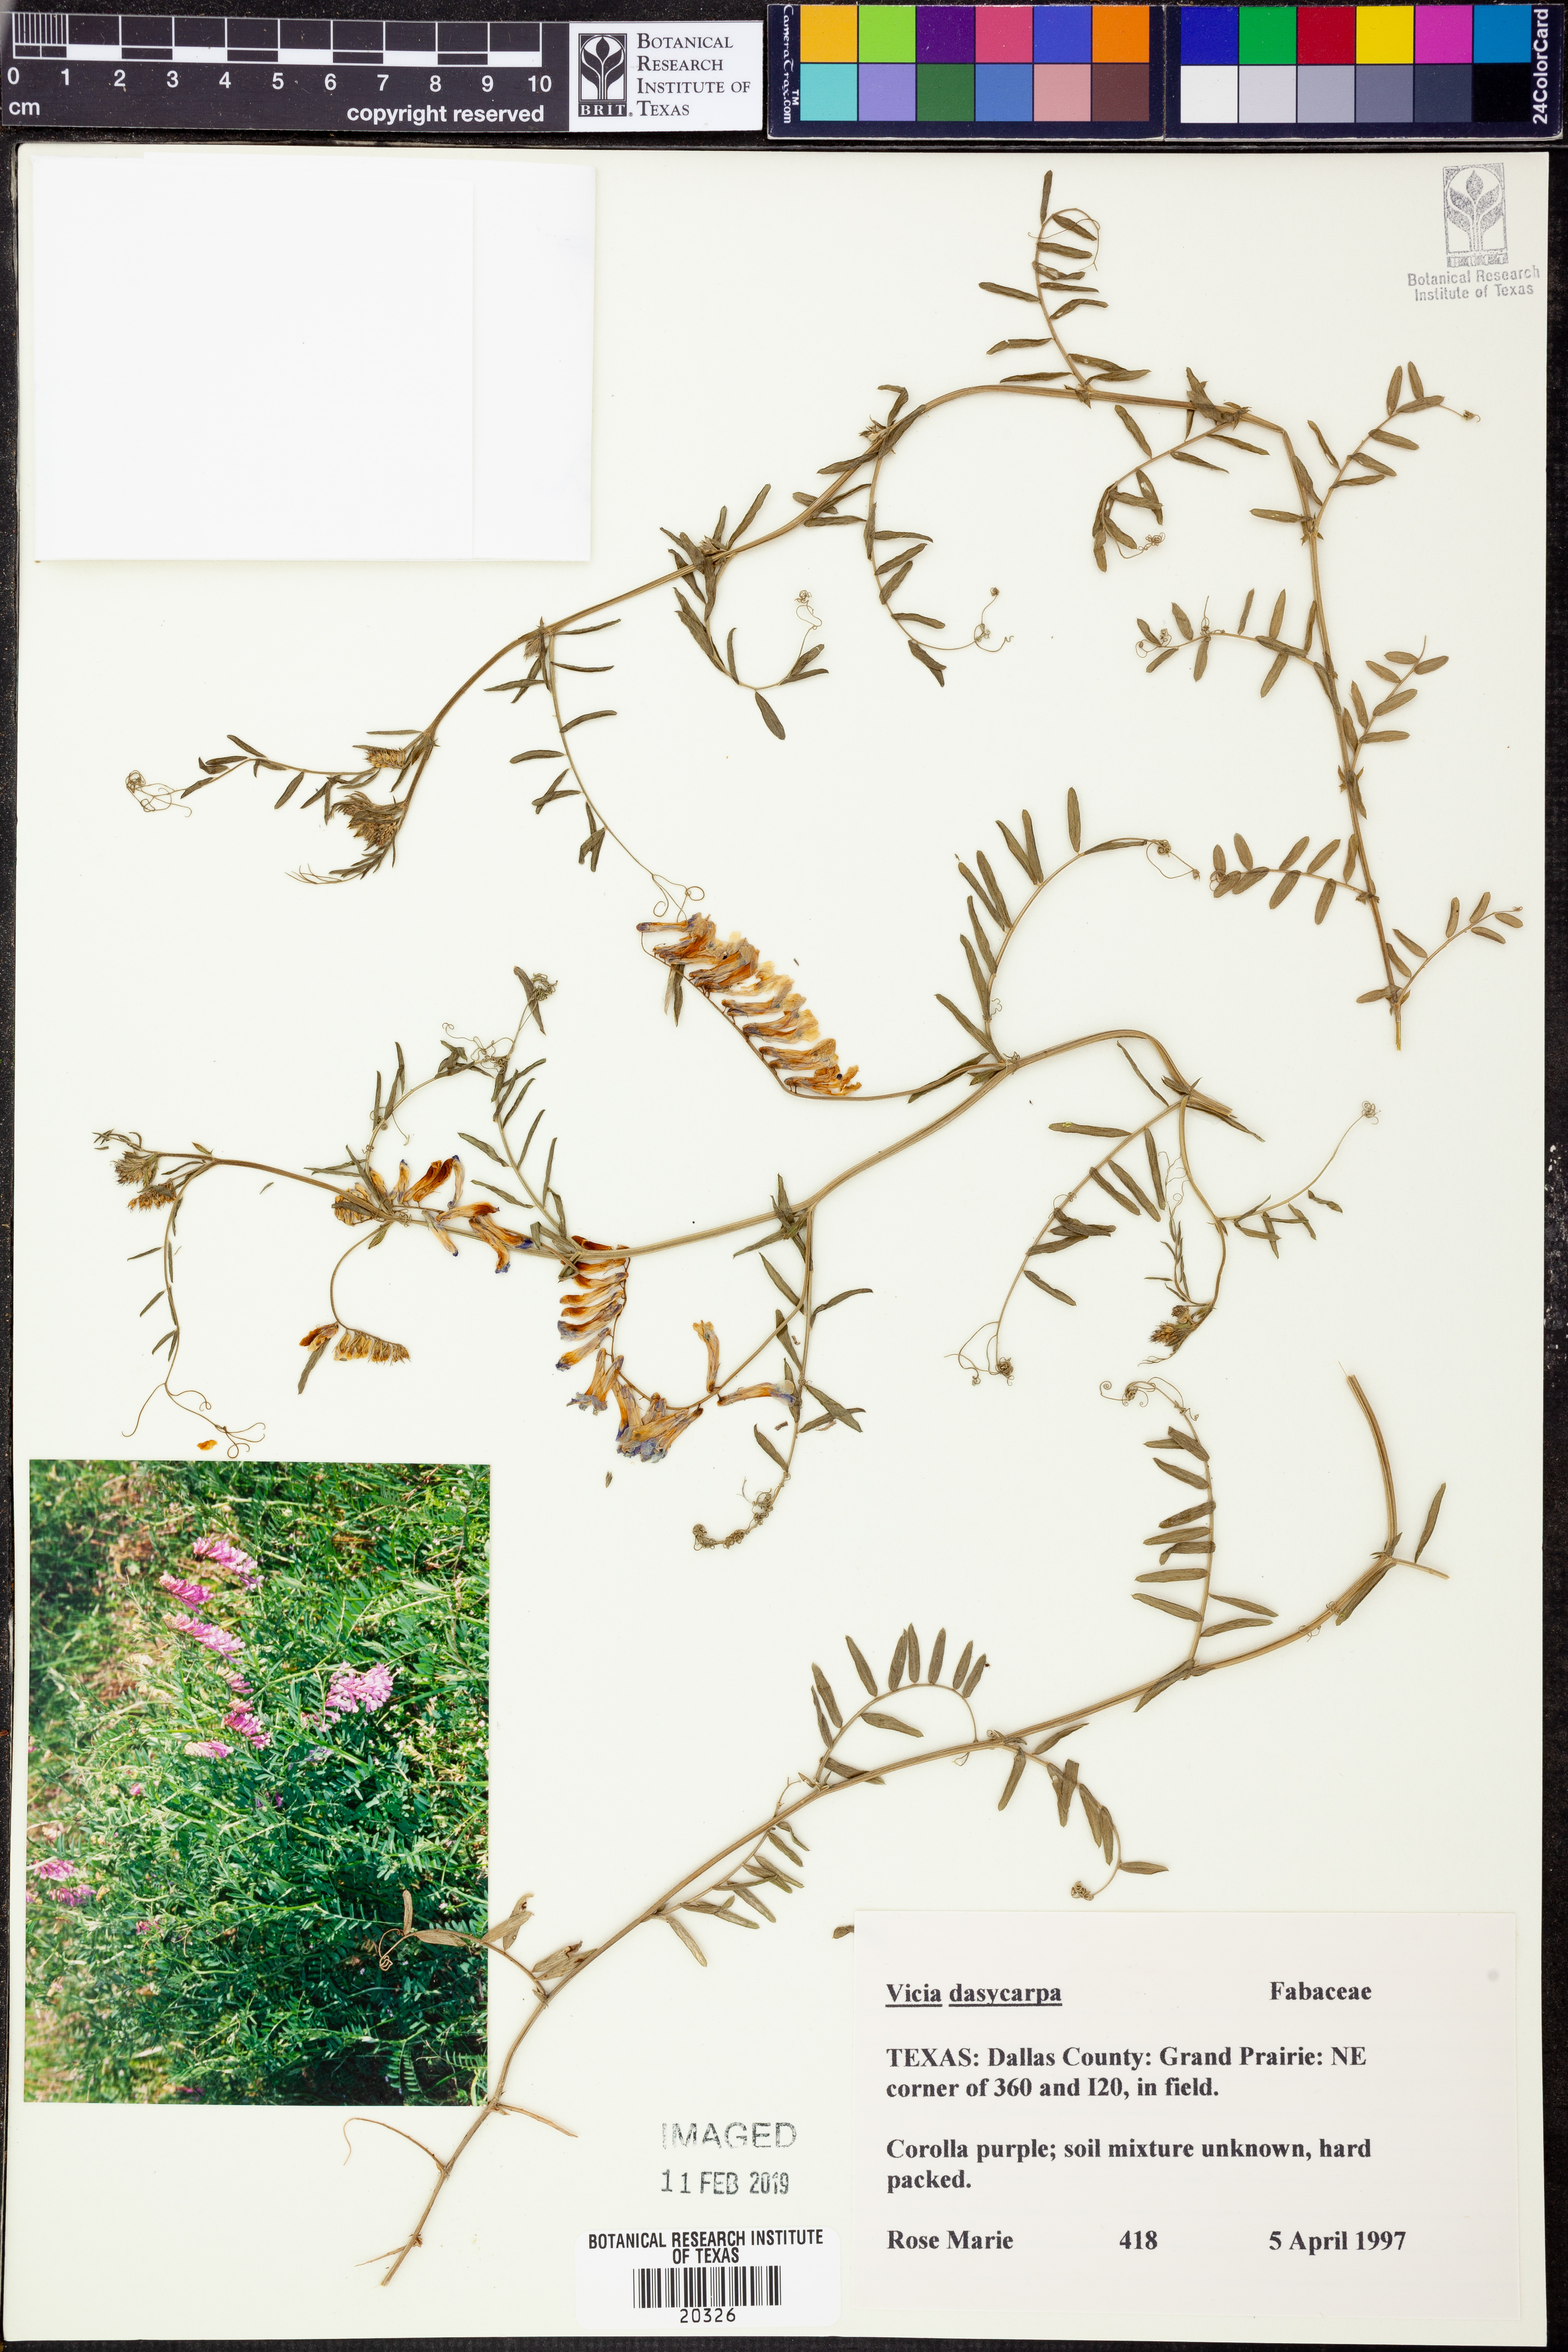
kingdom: Plantae
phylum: Tracheophyta
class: Magnoliopsida
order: Fabales
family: Fabaceae
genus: Vicia
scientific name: Vicia villosa
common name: Fodder vetch
